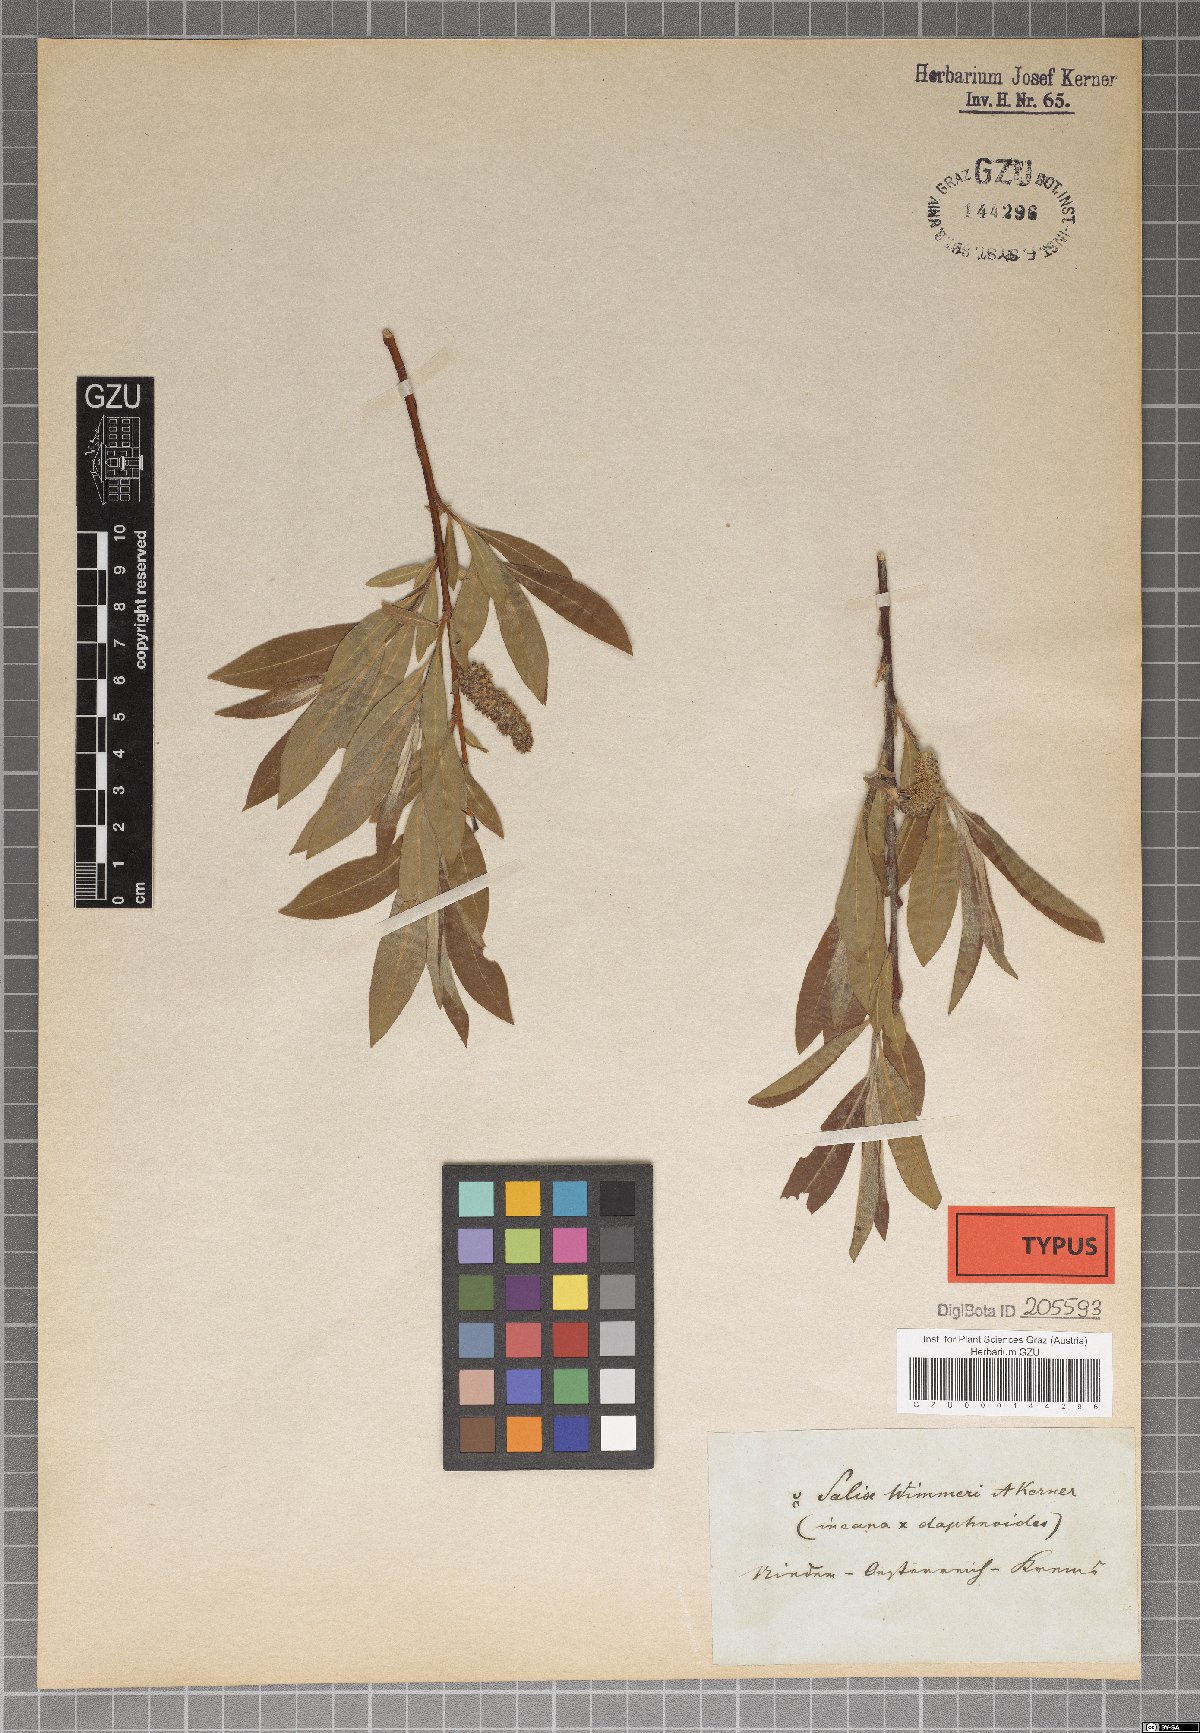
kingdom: Plantae
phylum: Tracheophyta
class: Magnoliopsida
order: Malpighiales
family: Salicaceae
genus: Salix
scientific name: Salix reuteri
